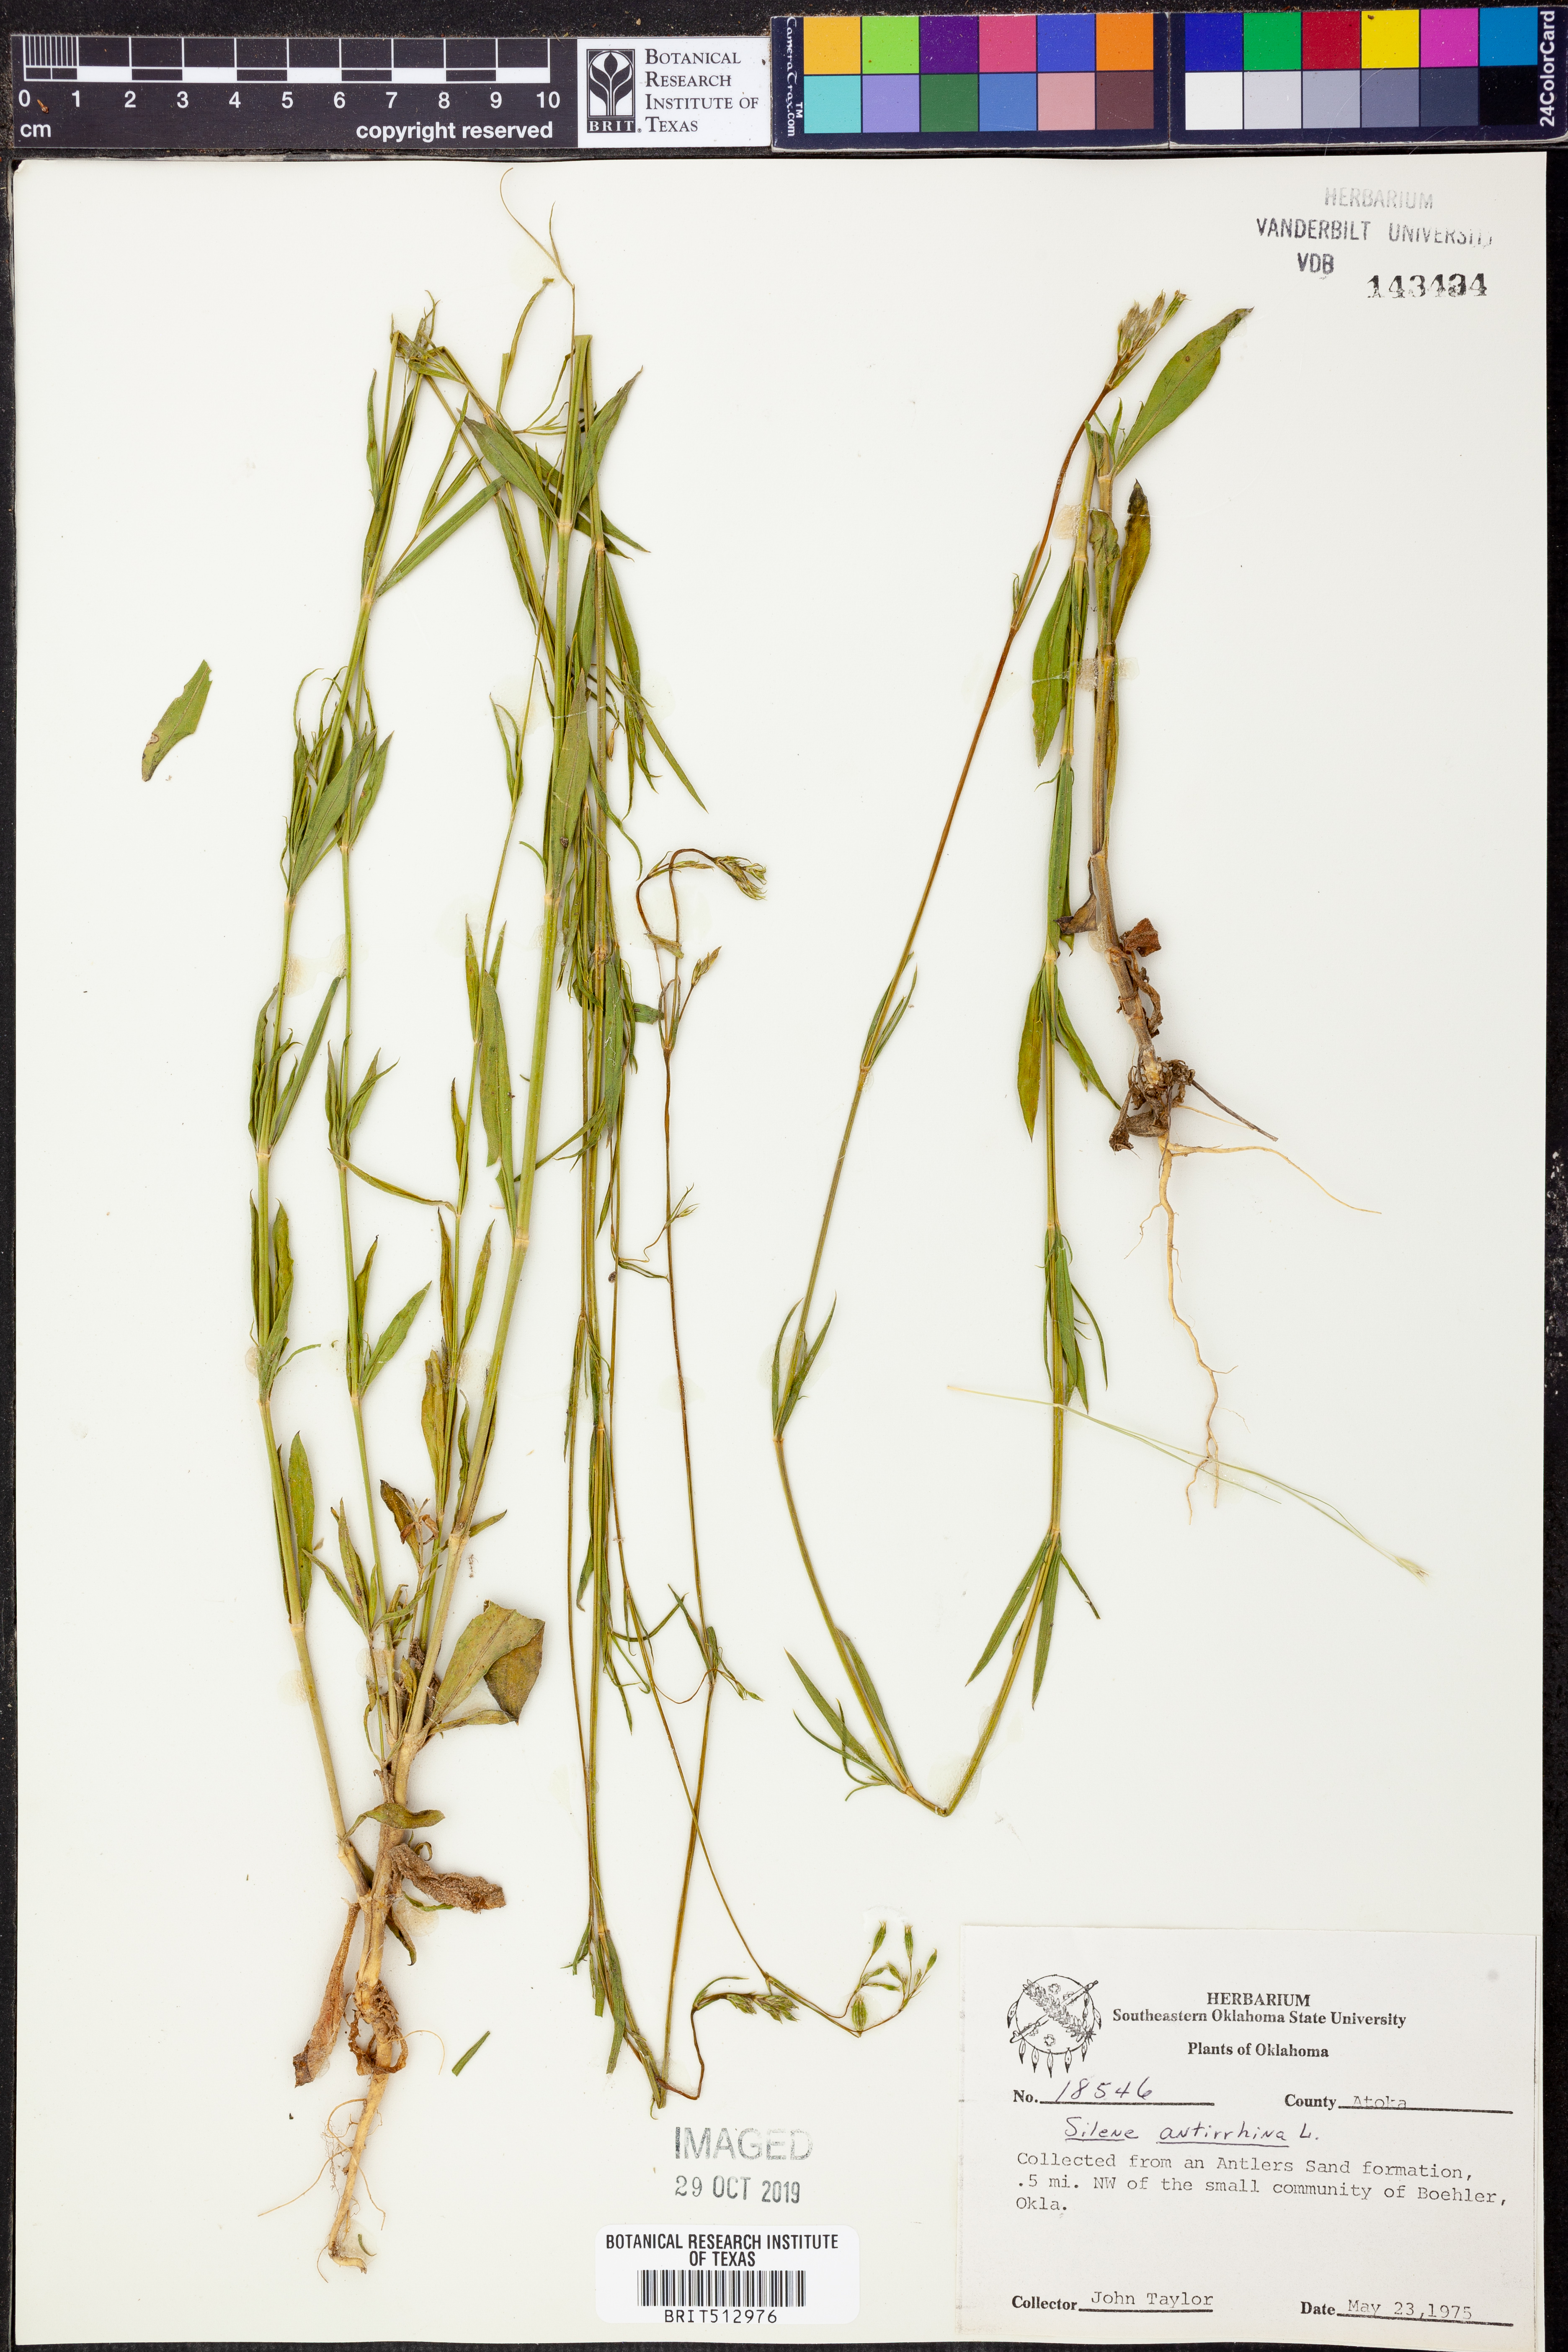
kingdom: Plantae
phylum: Tracheophyta
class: Magnoliopsida
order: Caryophyllales
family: Caryophyllaceae
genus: Silene
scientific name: Silene antirrhina
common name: Sleepy catchfly
